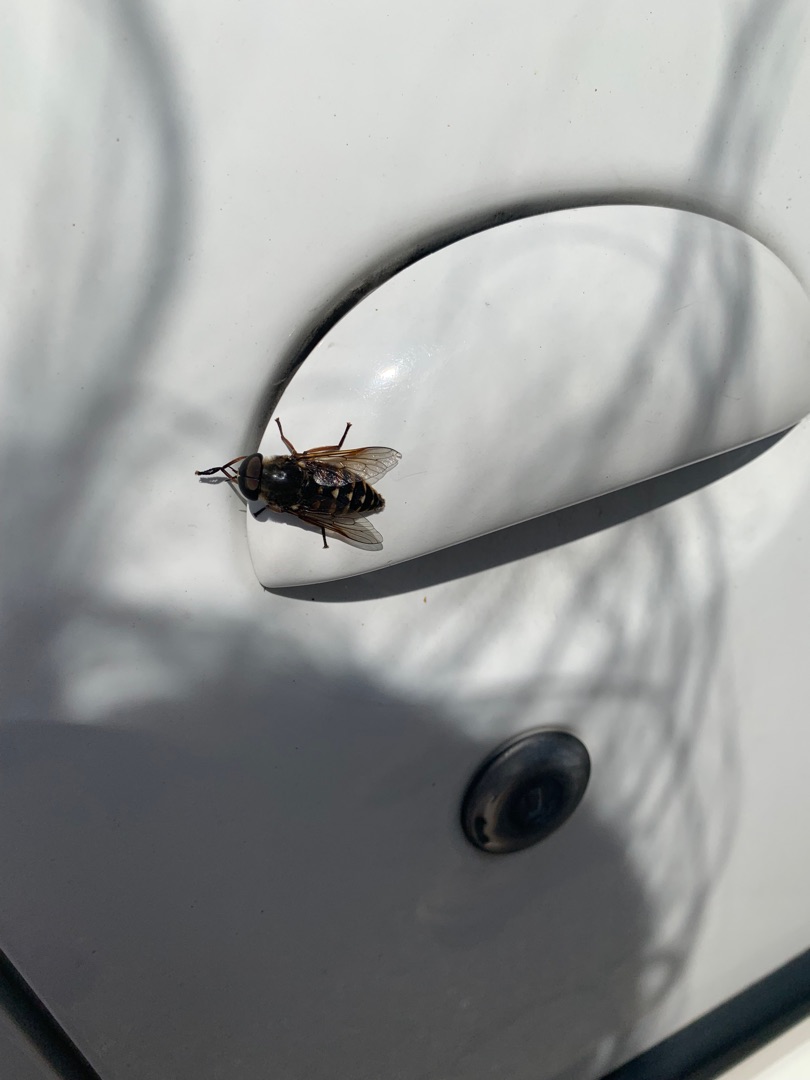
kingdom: Animalia
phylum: Arthropoda
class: Insecta
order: Diptera
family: Tabanidae
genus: Tabanus
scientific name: Tabanus sudeticus
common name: Hesteklæg
